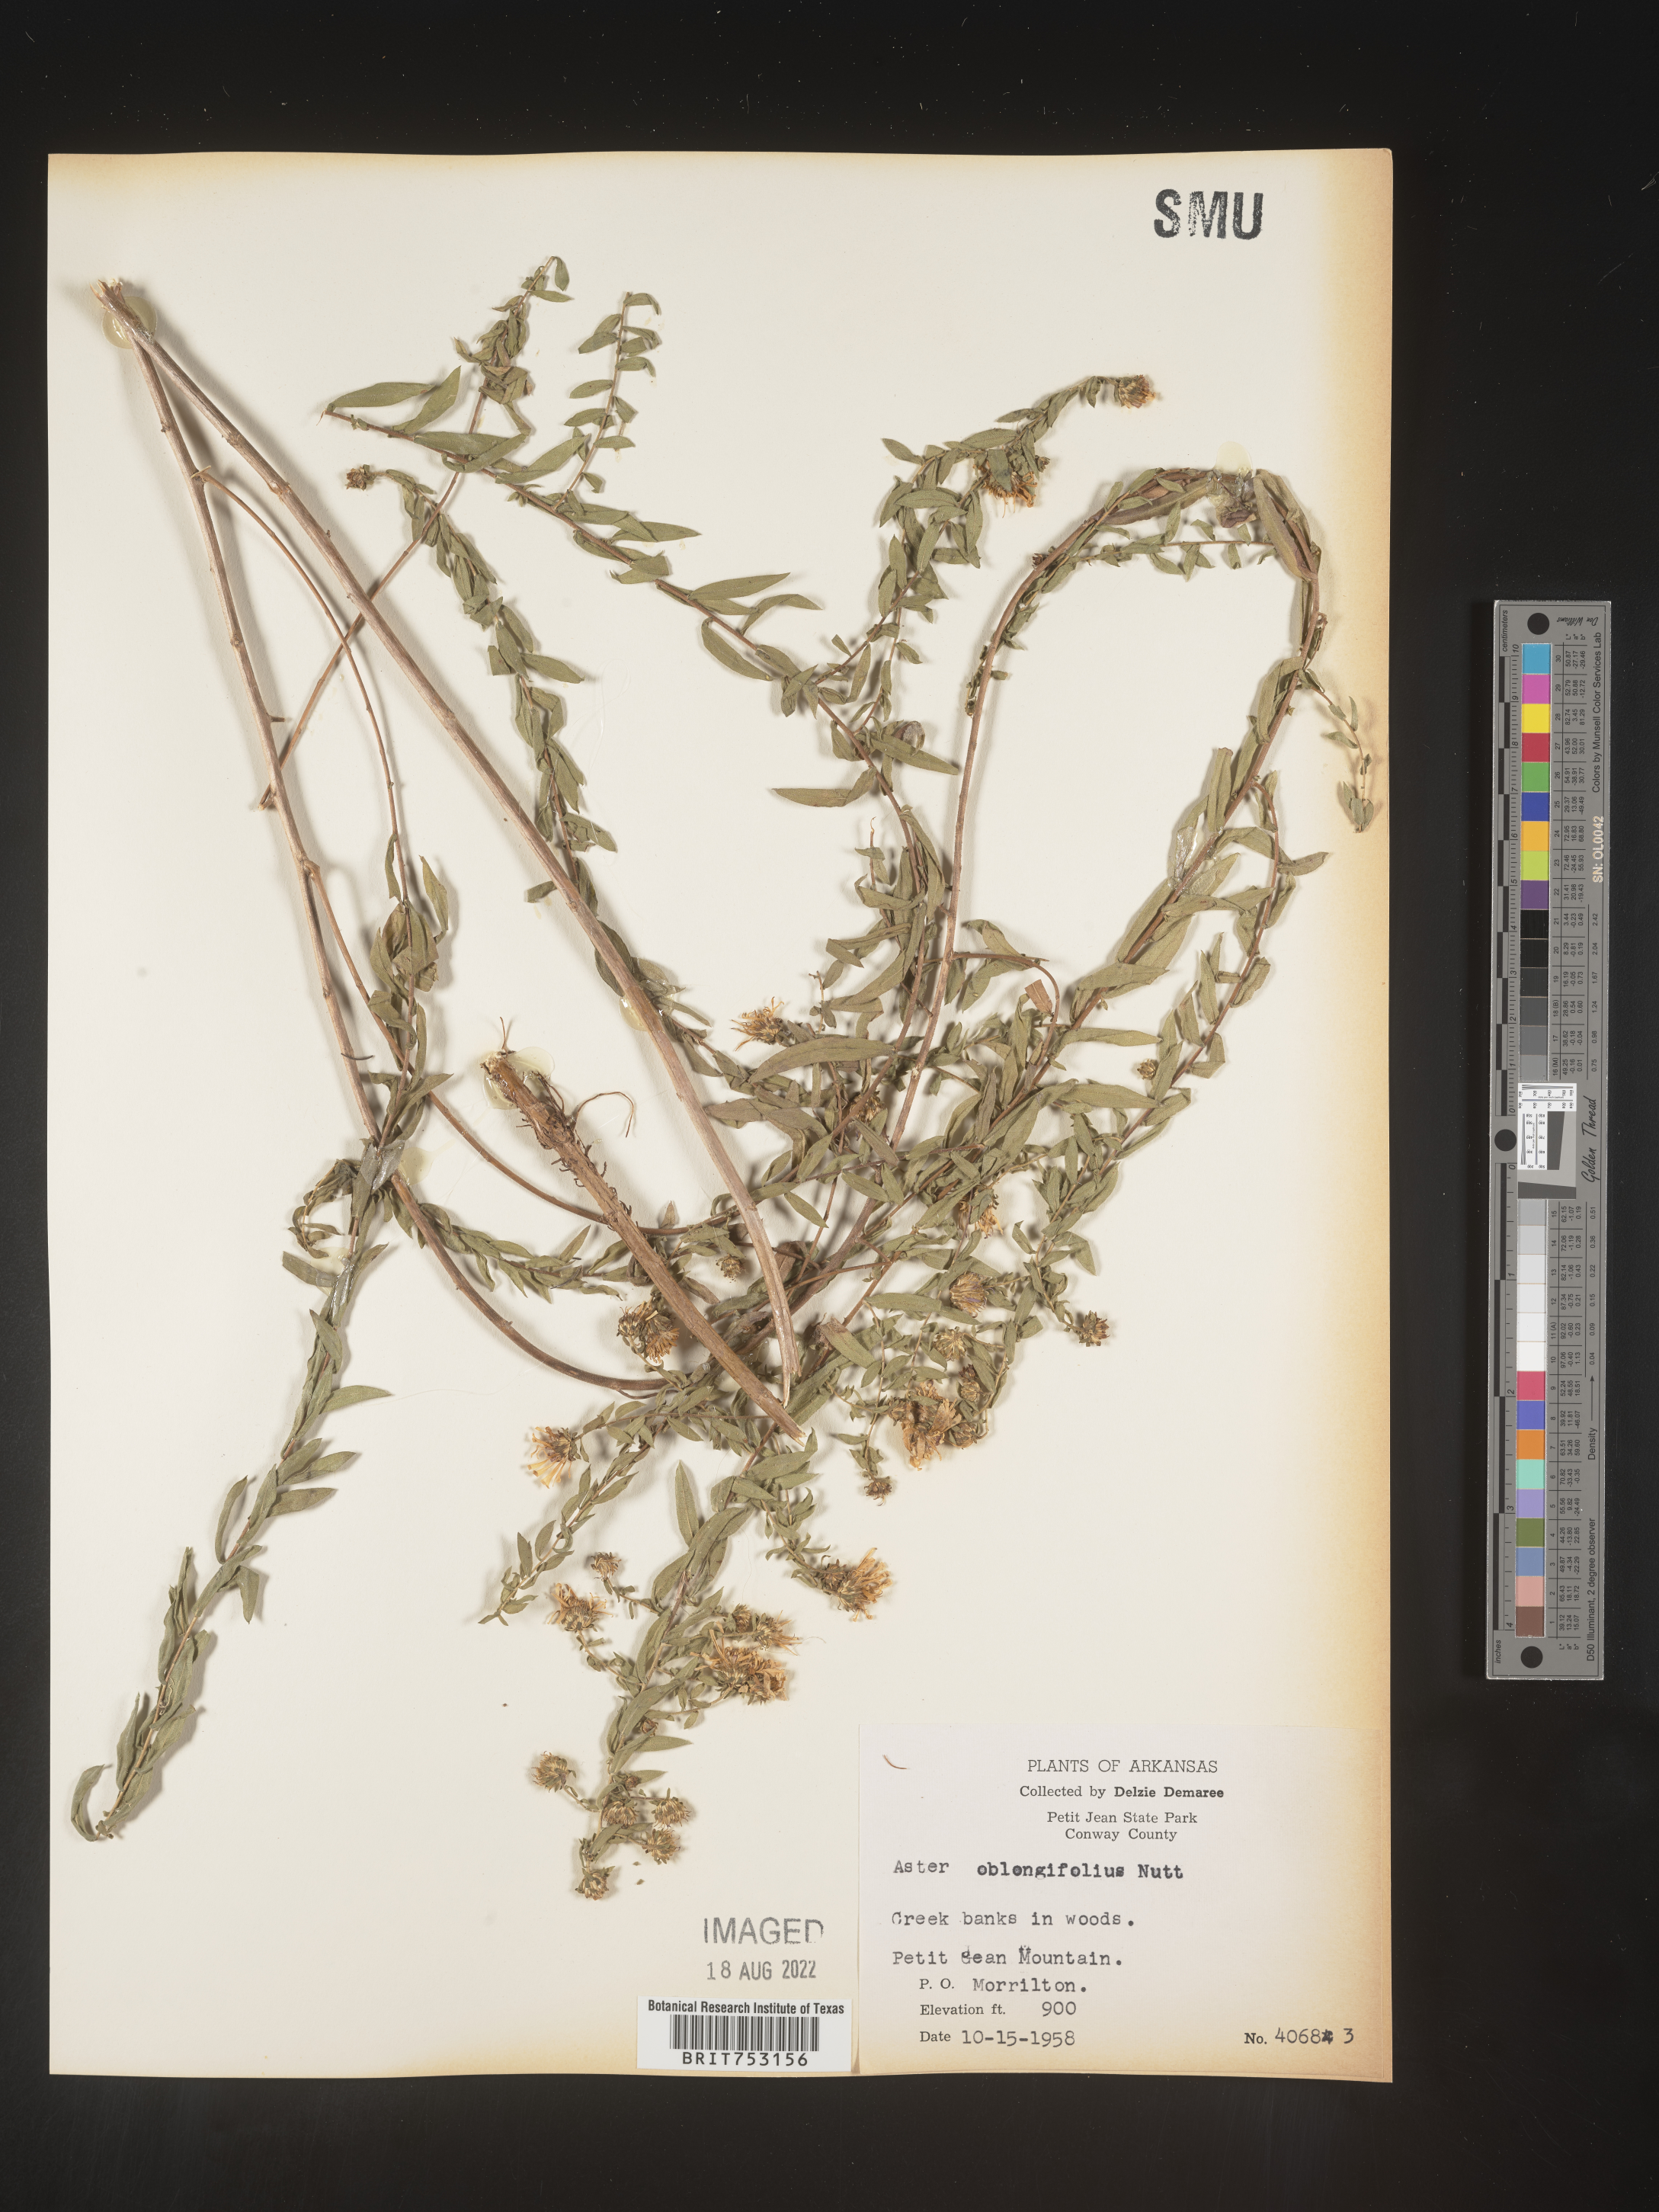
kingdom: Plantae
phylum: Tracheophyta
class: Magnoliopsida
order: Asterales
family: Asteraceae
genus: Symphyotrichum
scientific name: Symphyotrichum oblongifolium
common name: Aromatic aster
